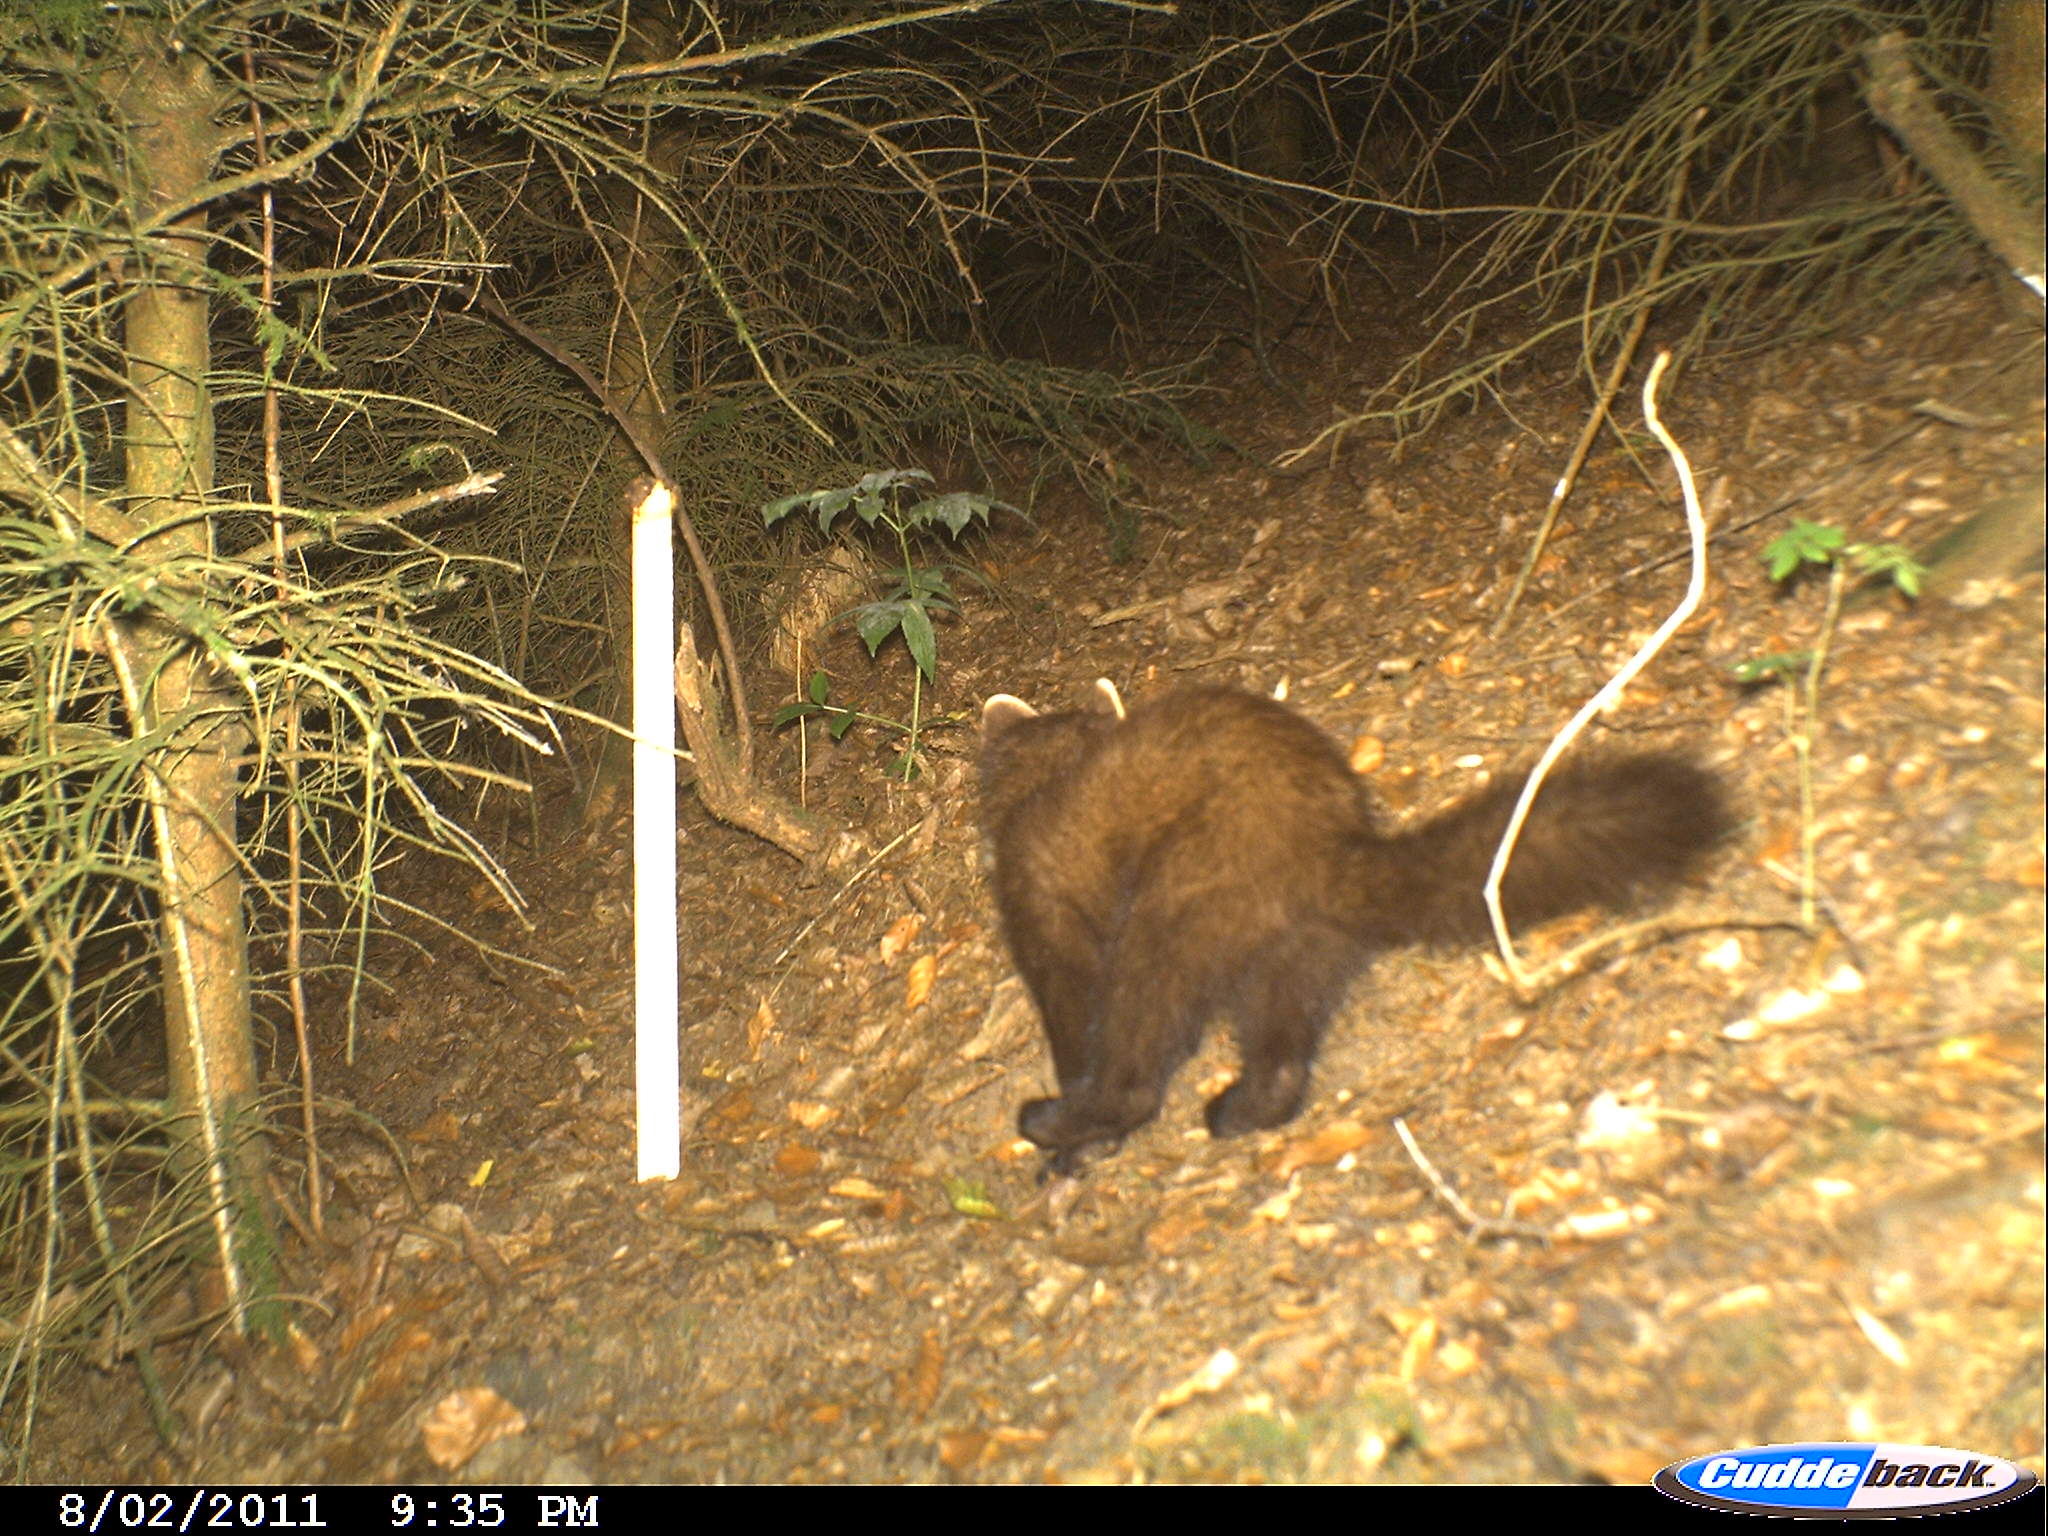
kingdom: Animalia
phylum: Chordata
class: Mammalia
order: Carnivora
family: Mustelidae
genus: Martes
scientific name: Martes martes
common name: European pine marten
